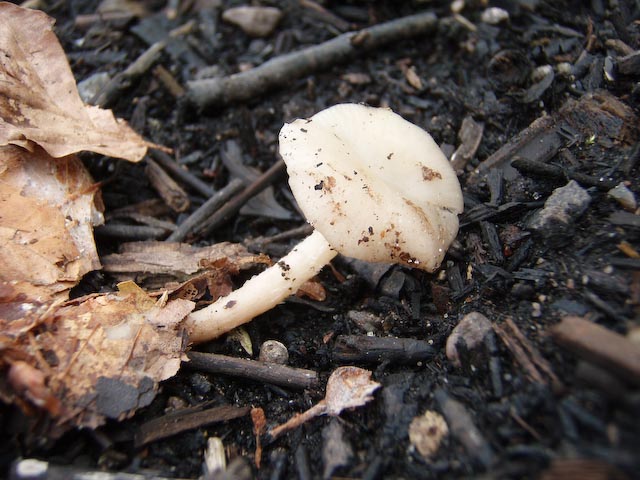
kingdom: Fungi
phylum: Basidiomycota
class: Agaricomycetes
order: Agaricales
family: Tricholomataceae
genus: Clitocybe
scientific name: Clitocybe phaeophthalma
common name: stinkende tragthat
